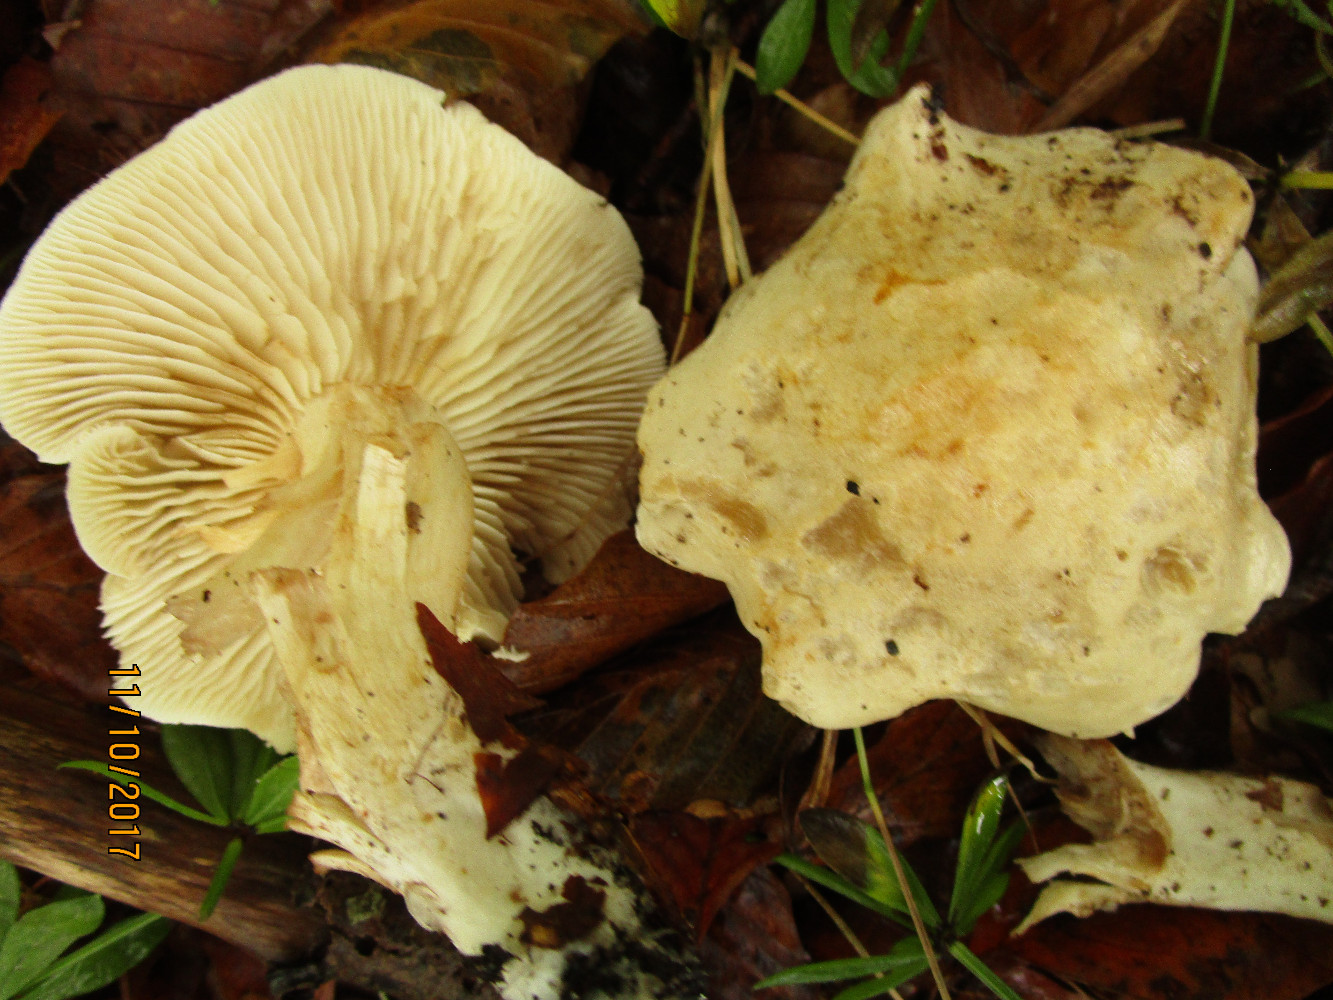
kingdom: Fungi
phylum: Basidiomycota
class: Agaricomycetes
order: Agaricales
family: Tricholomataceae
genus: Tricholoma
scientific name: Tricholoma lascivum
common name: stinkende ridderhat
